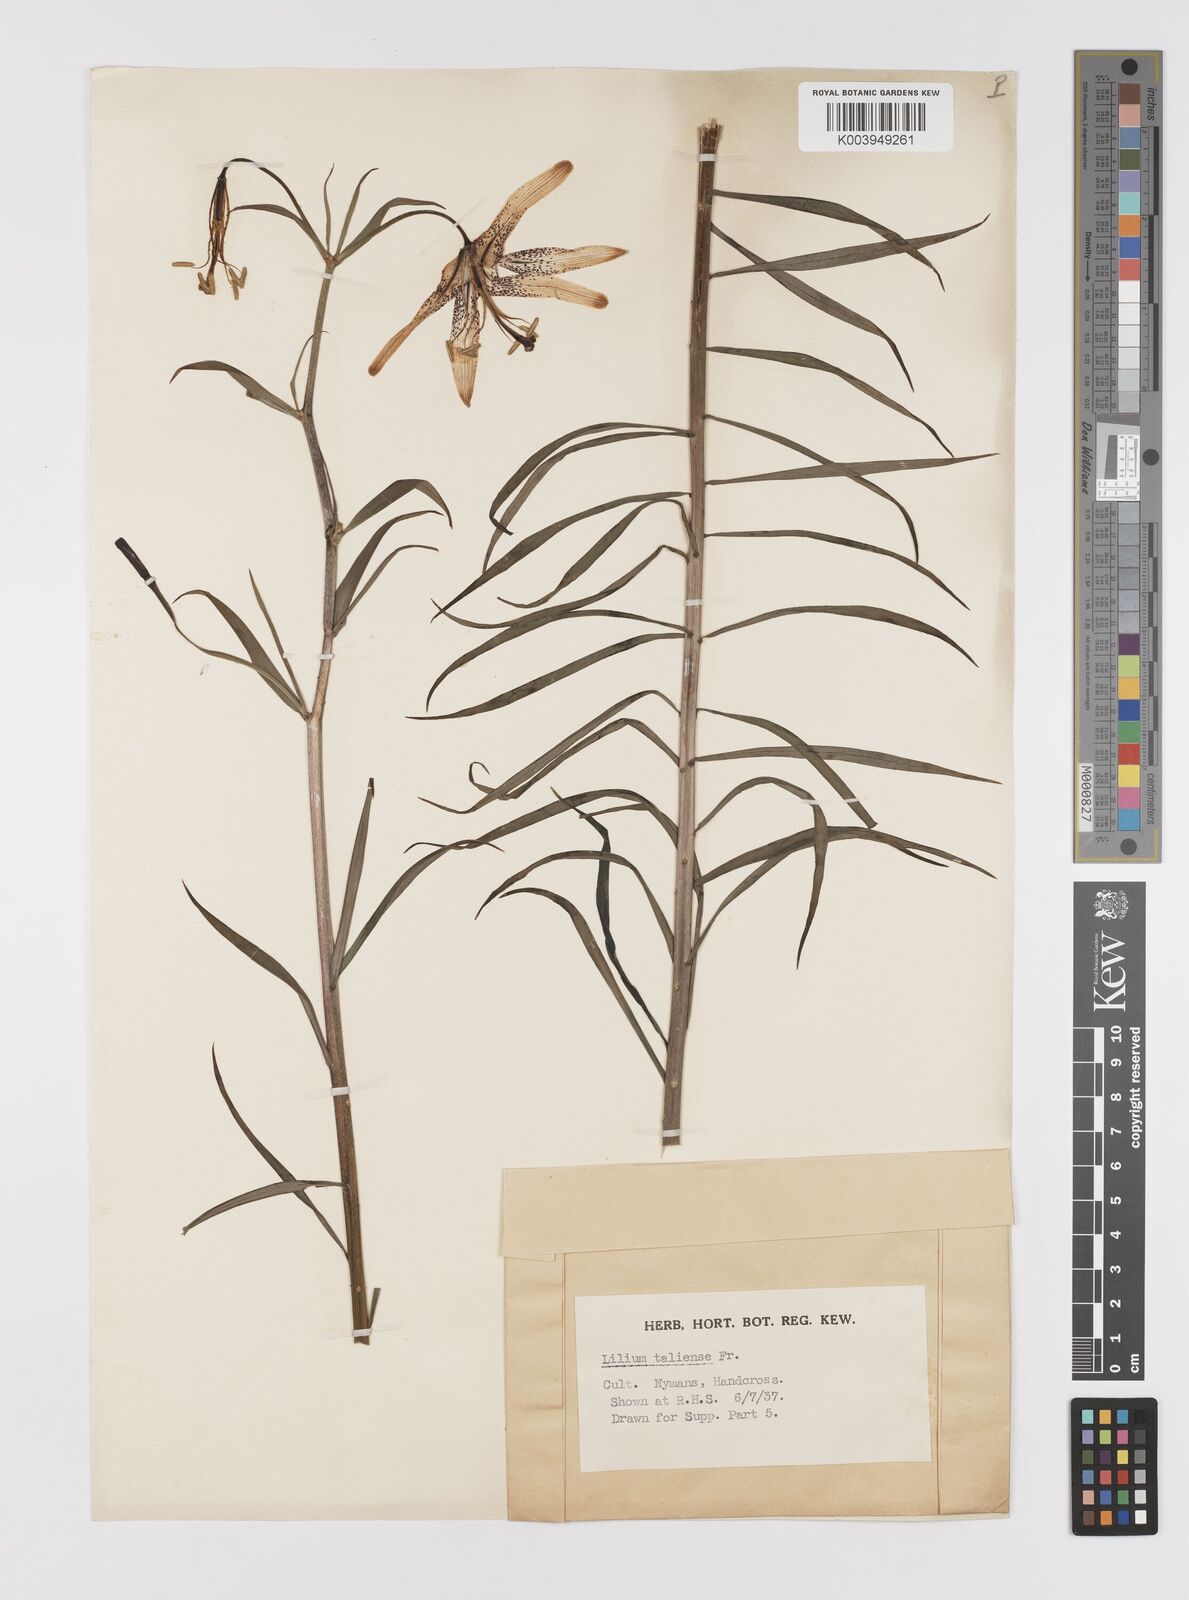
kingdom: Plantae
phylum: Tracheophyta
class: Liliopsida
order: Liliales
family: Liliaceae
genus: Lilium
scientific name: Lilium taliense
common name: Tali lily
